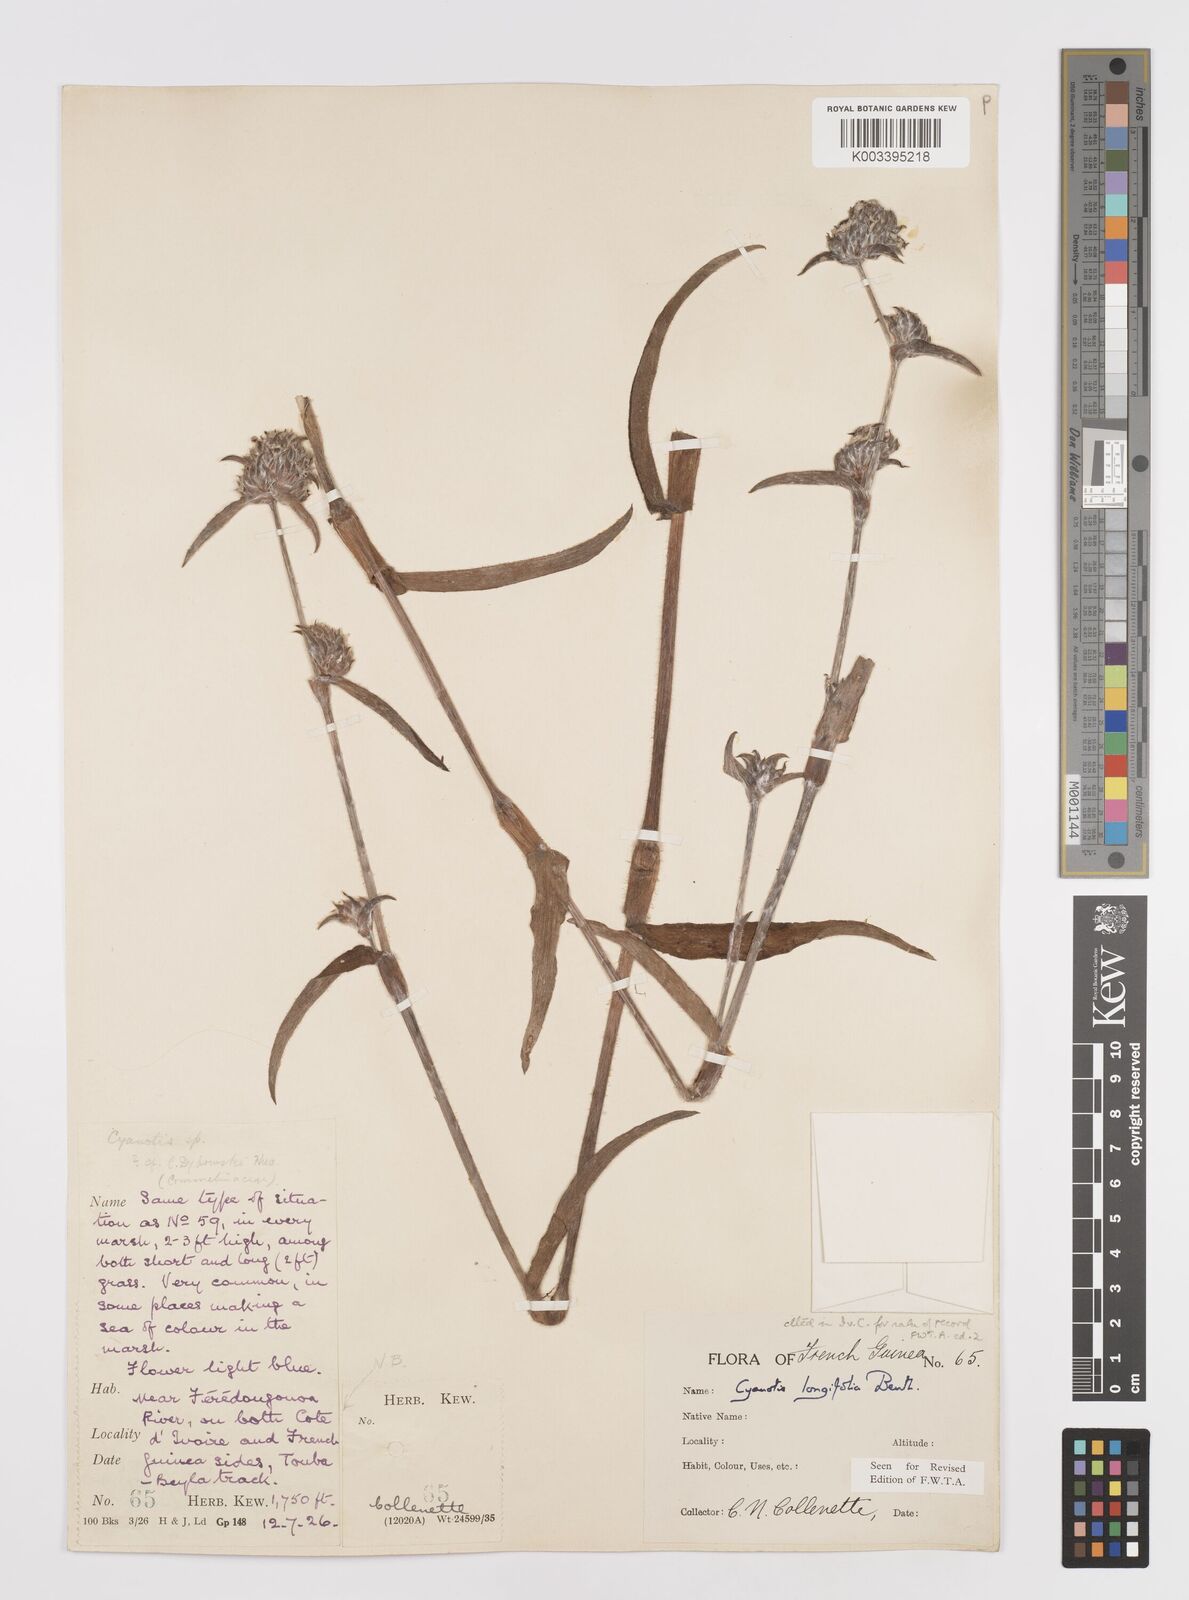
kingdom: Plantae
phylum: Tracheophyta
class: Liliopsida
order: Commelinales
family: Commelinaceae
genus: Cyanotis
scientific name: Cyanotis
